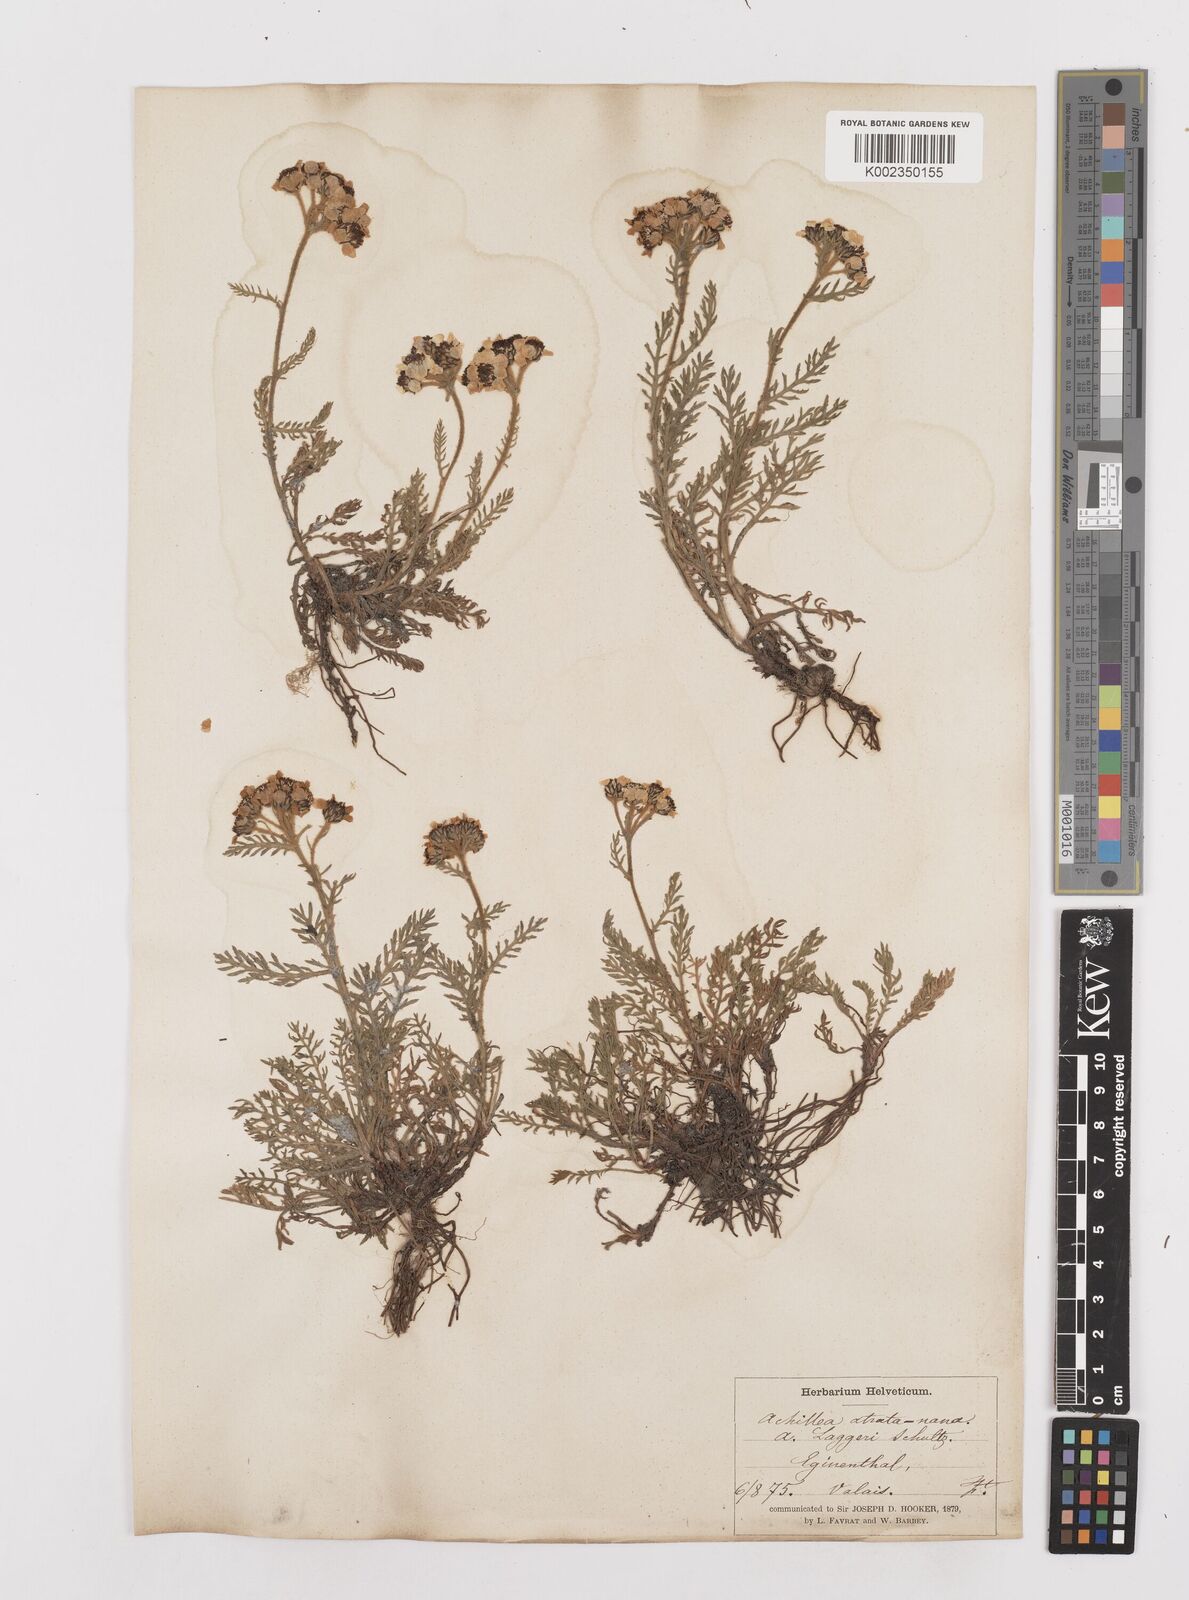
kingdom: Plantae
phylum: Tracheophyta
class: Magnoliopsida
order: Asterales
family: Asteraceae
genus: Achillea
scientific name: Achillea atrata
